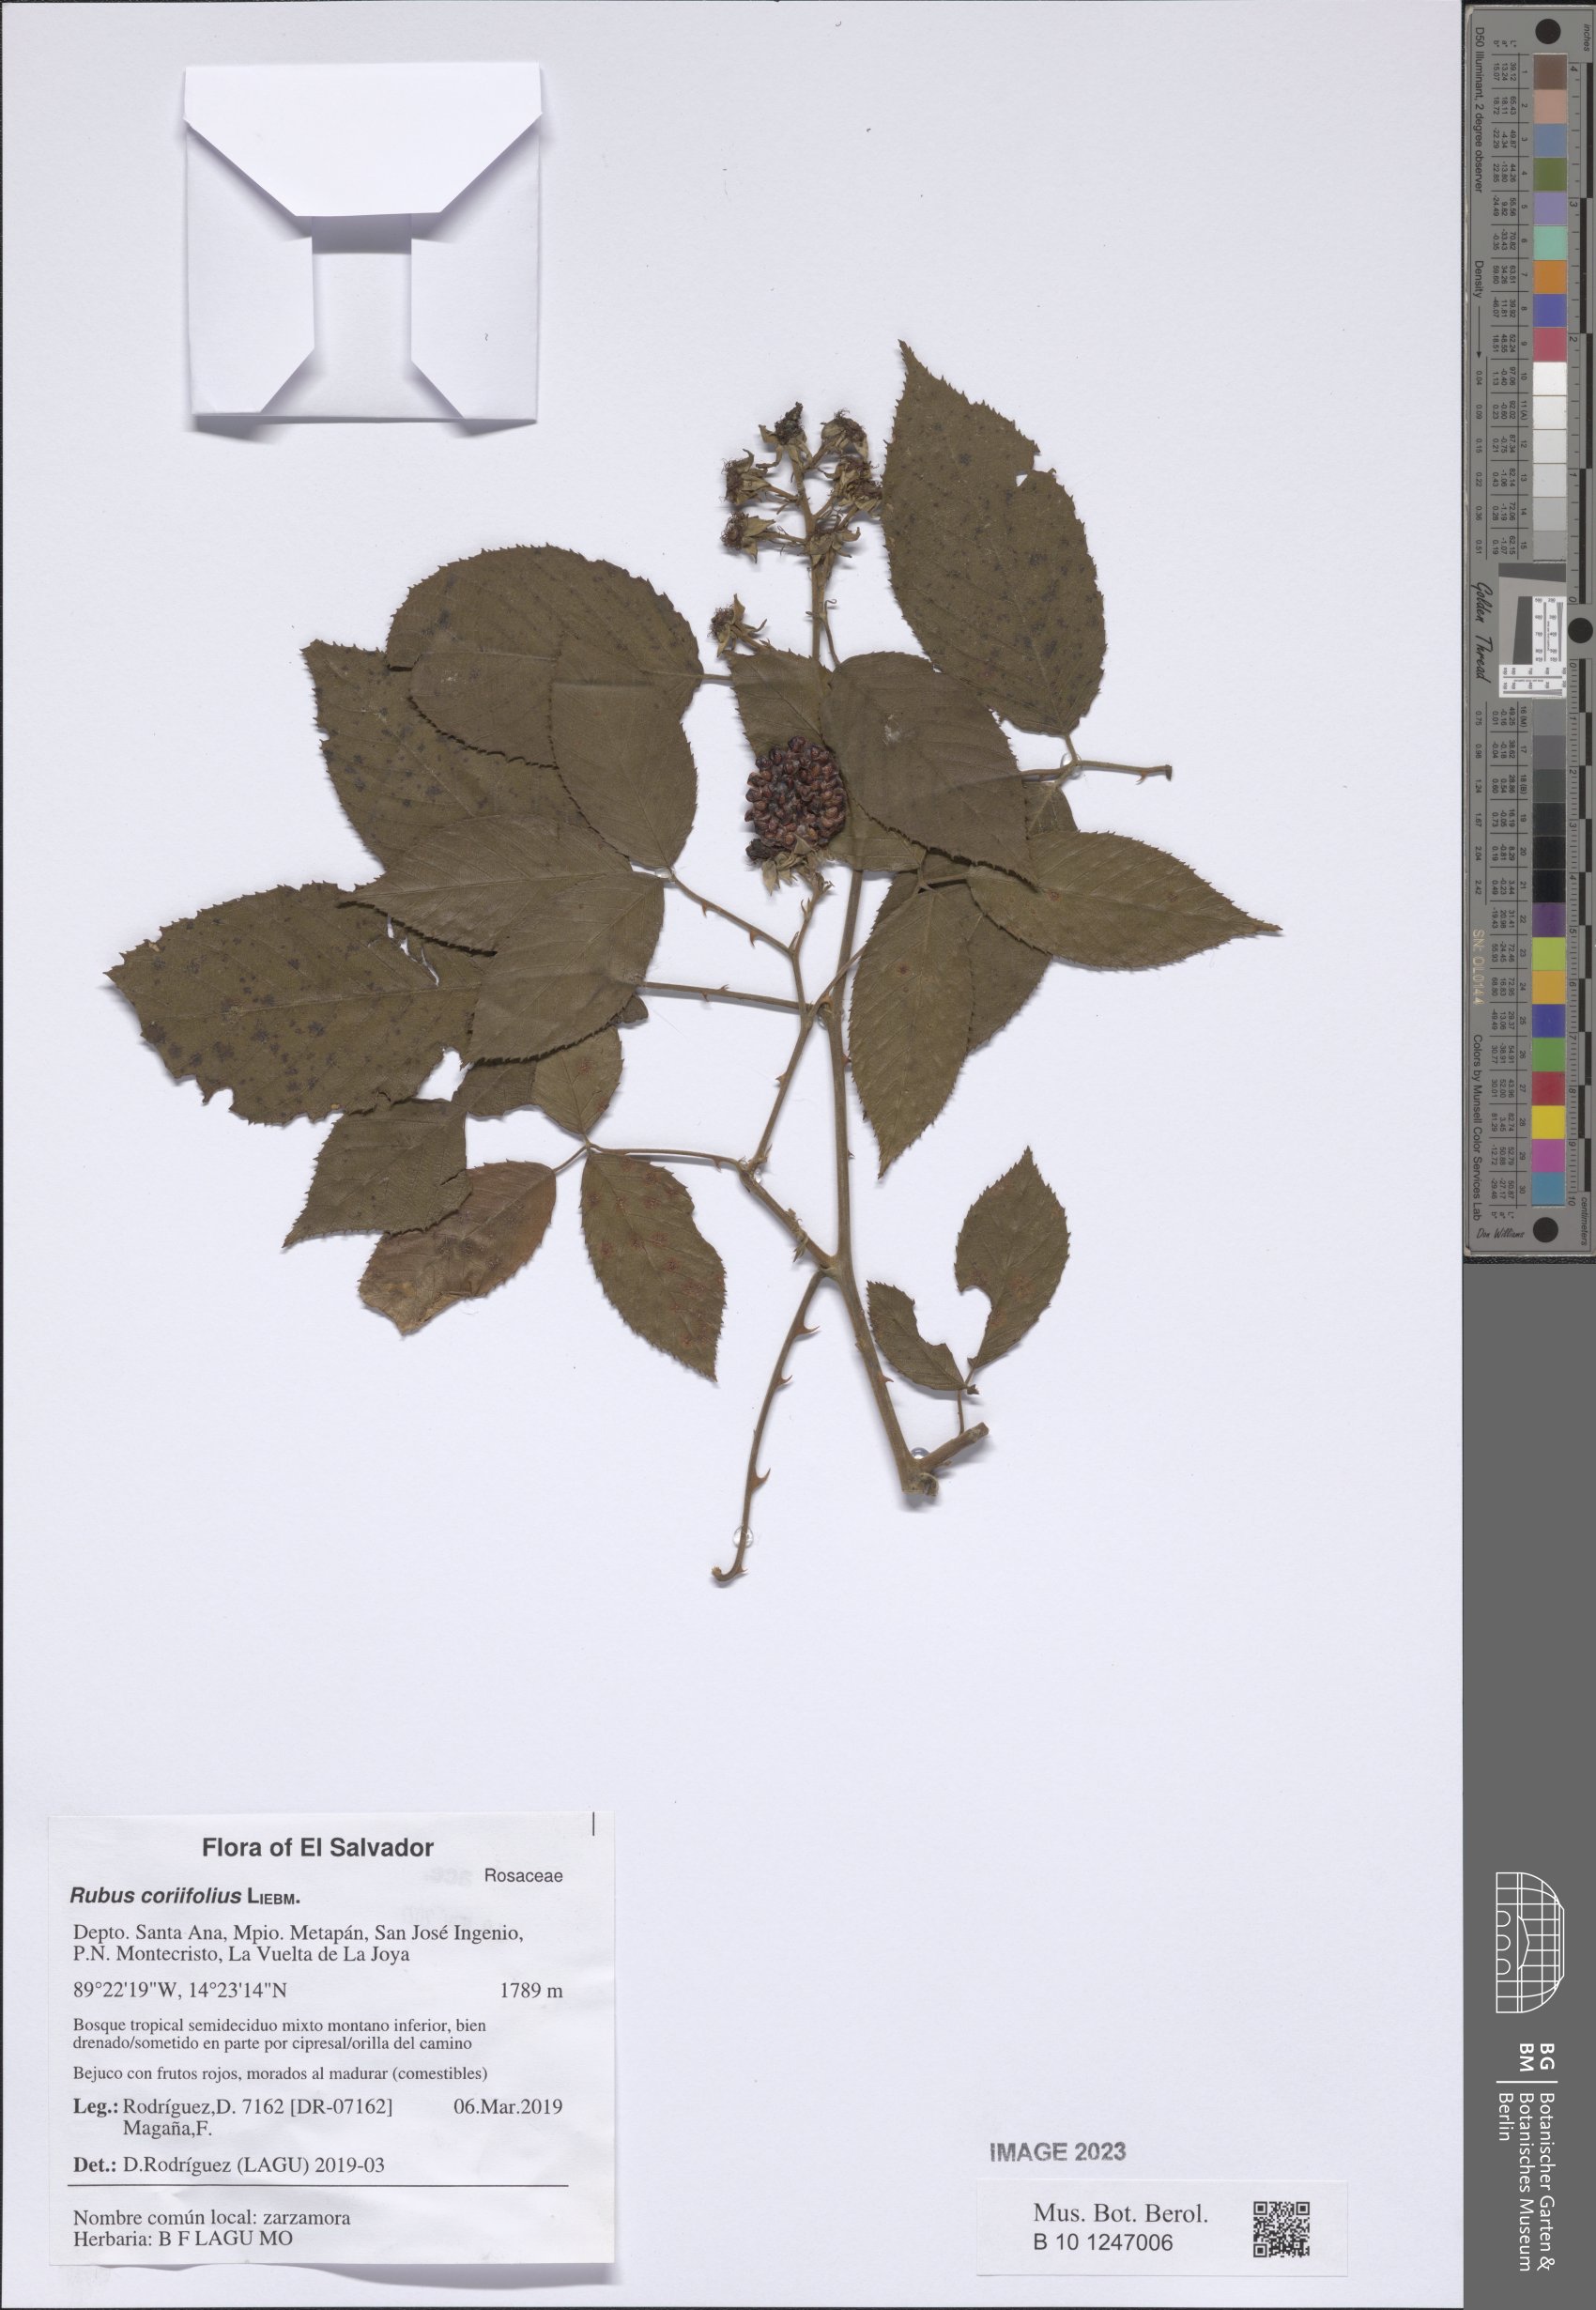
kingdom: Plantae
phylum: Tracheophyta
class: Magnoliopsida
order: Rosales
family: Rosaceae
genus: Rubus
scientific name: Rubus coriifolius
